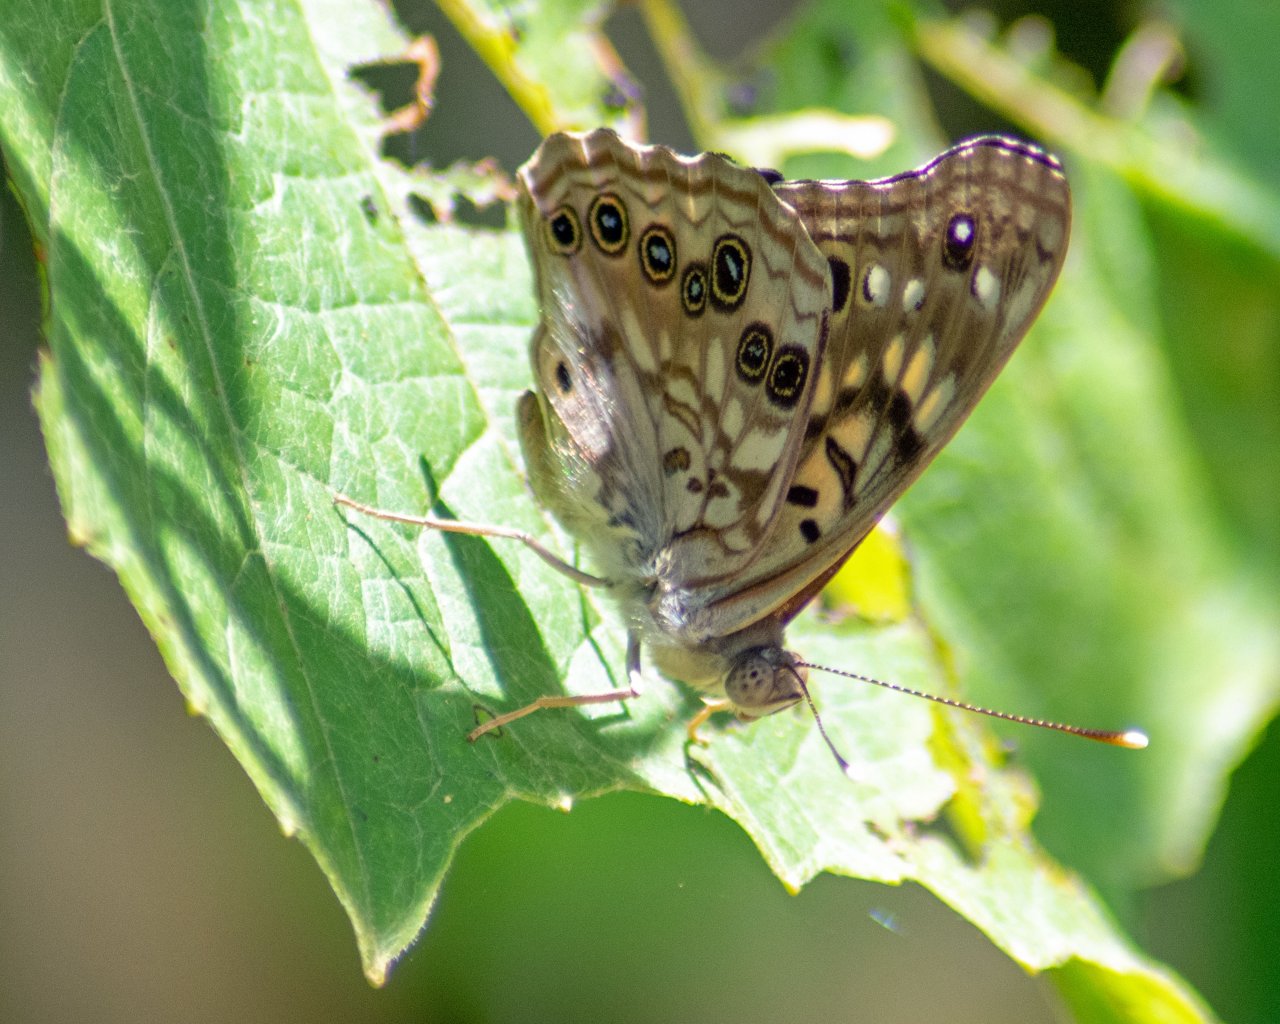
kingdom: Animalia
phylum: Arthropoda
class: Insecta
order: Lepidoptera
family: Nymphalidae
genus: Asterocampa
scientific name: Asterocampa celtis
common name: Hackberry Emperor
